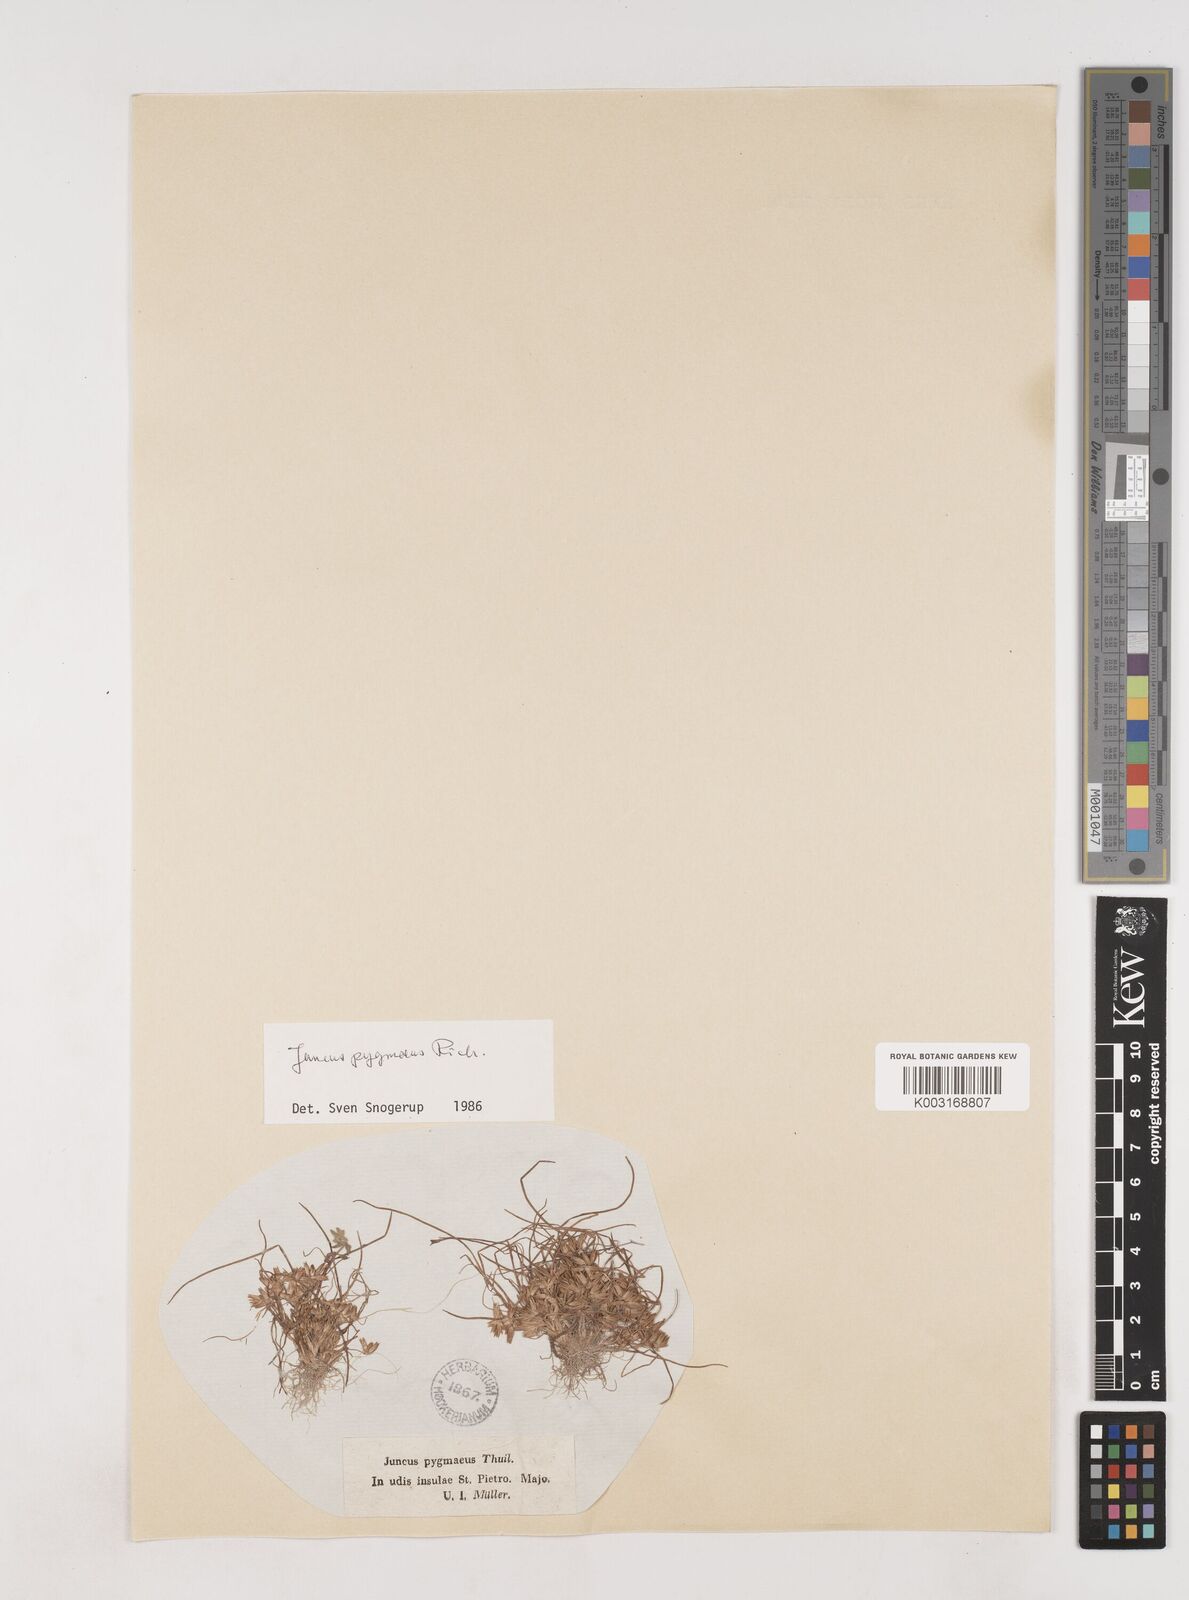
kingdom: Plantae
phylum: Tracheophyta
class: Liliopsida
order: Poales
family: Juncaceae
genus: Juncus
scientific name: Juncus pygmaeus
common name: Pigmy rush
